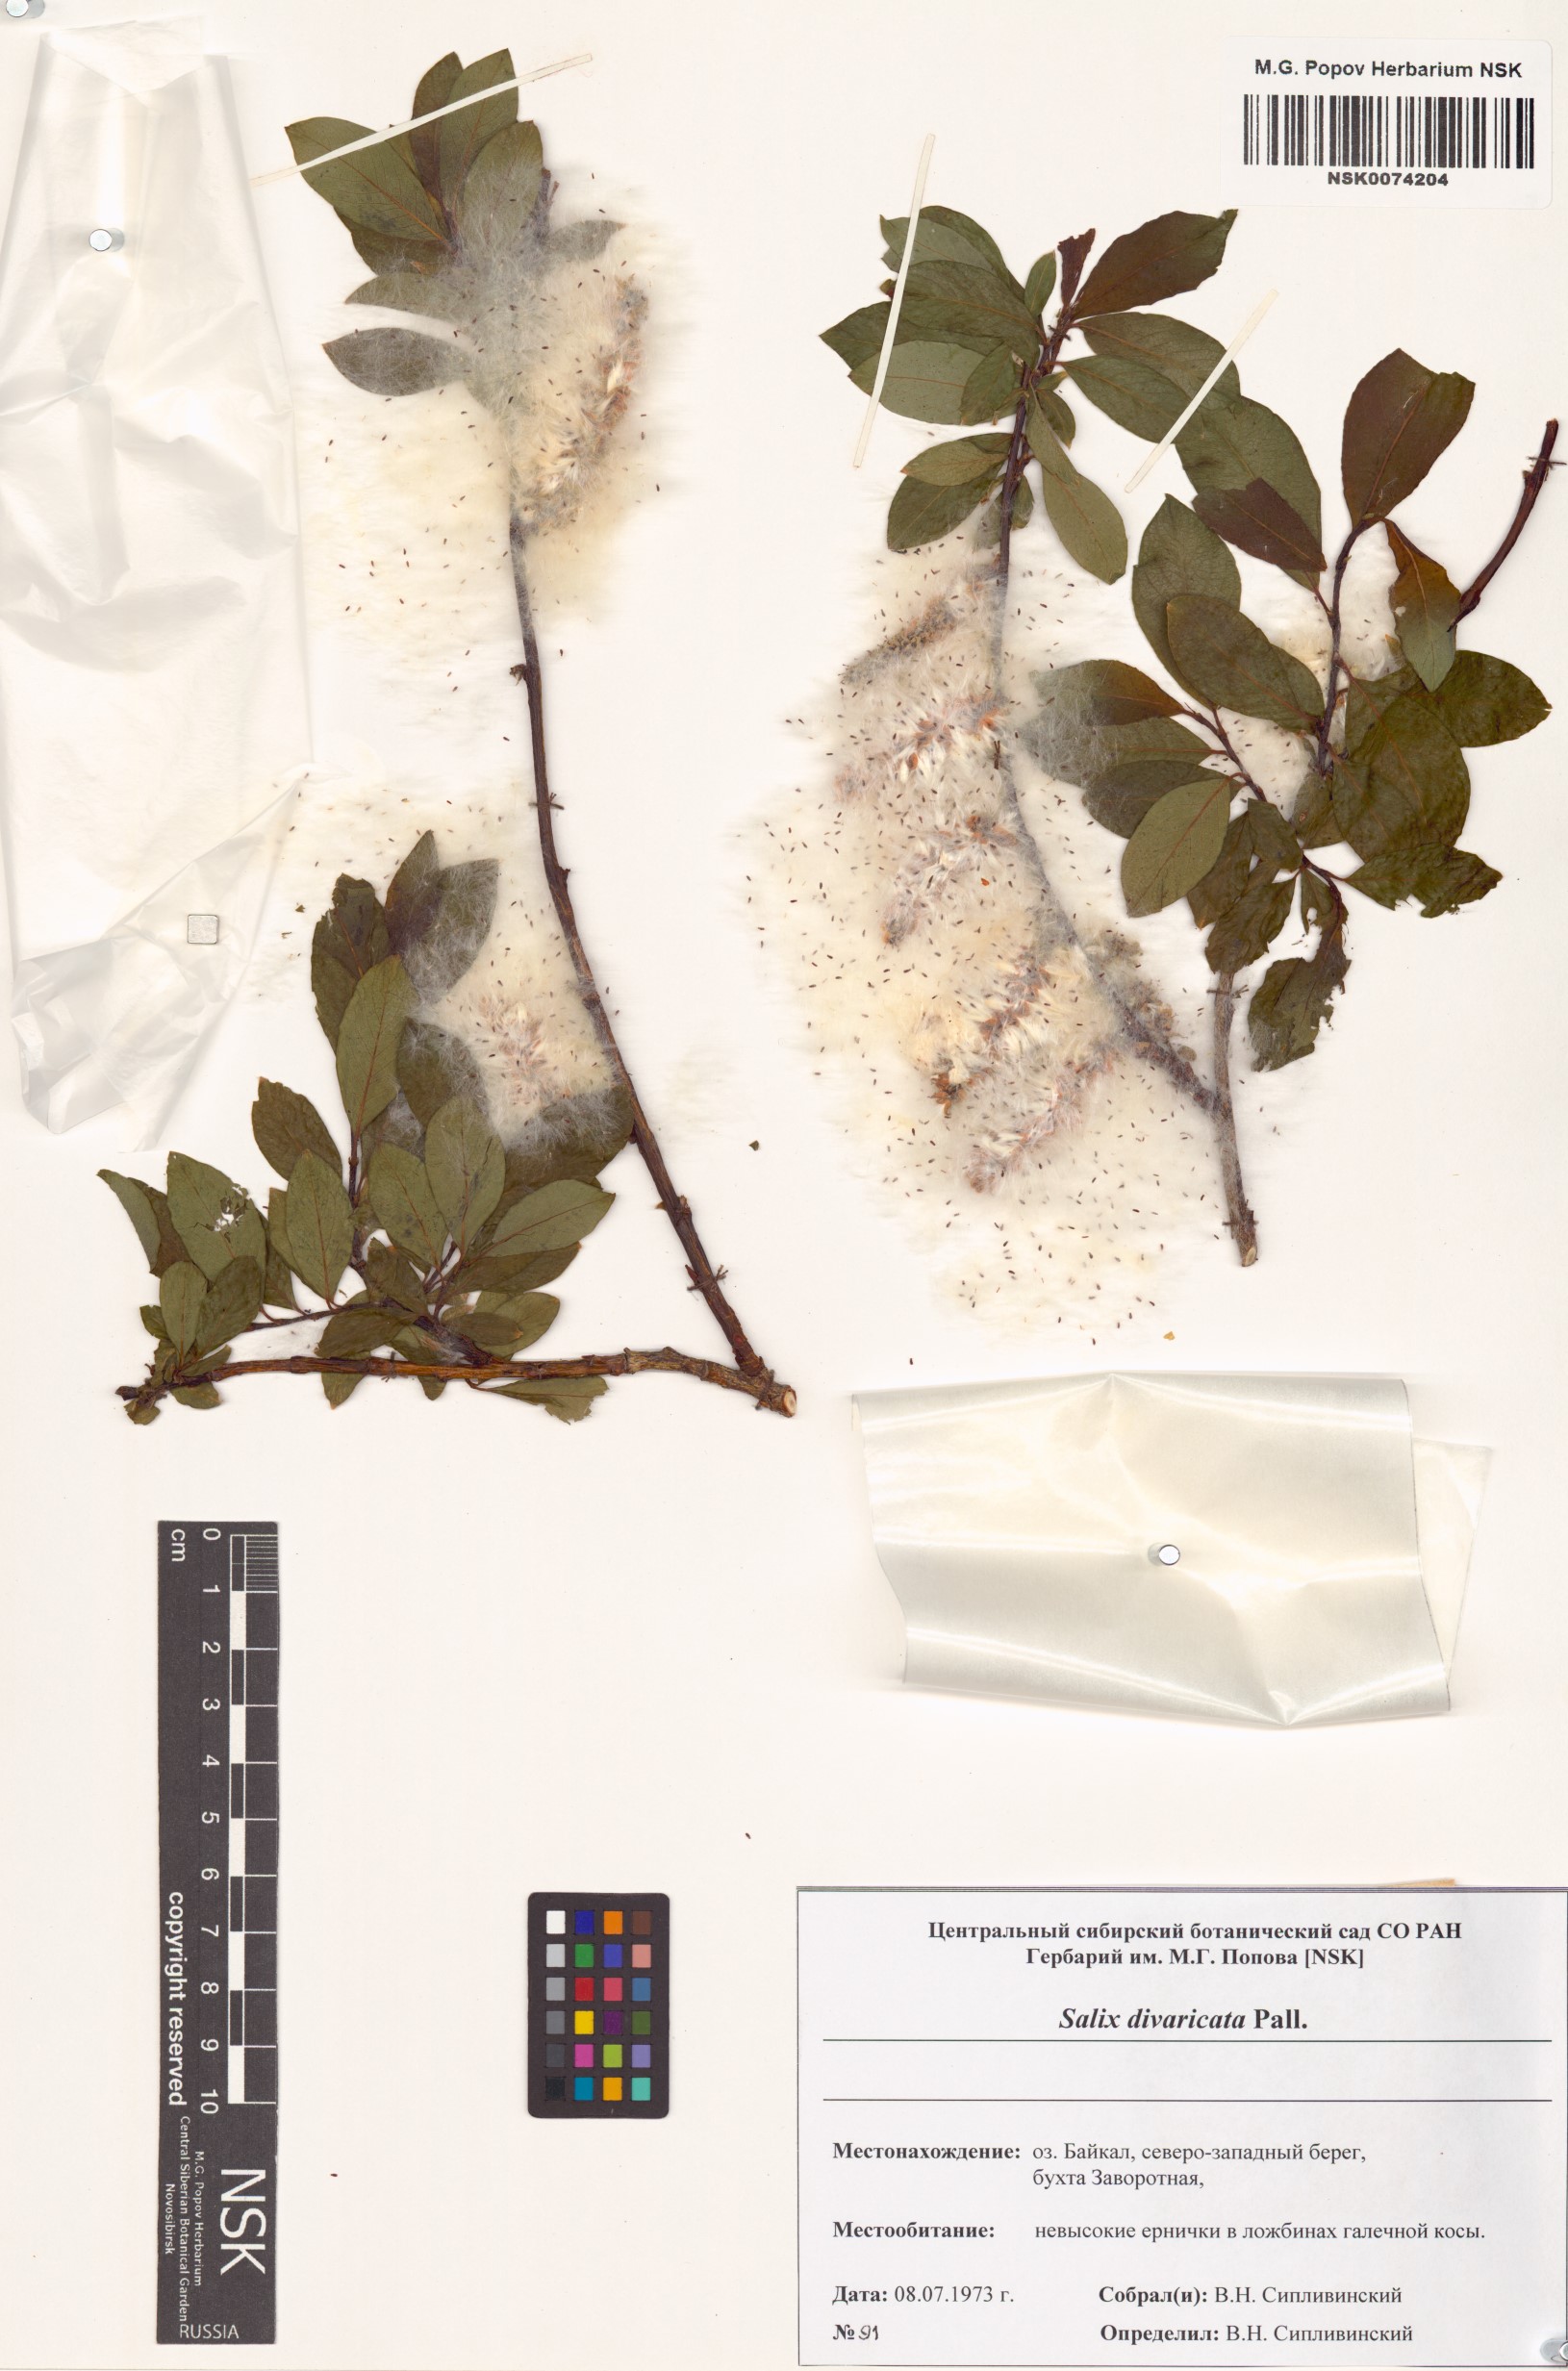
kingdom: Plantae
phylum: Tracheophyta
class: Magnoliopsida
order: Malpighiales
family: Salicaceae
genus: Salix
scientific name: Salix divaricata
